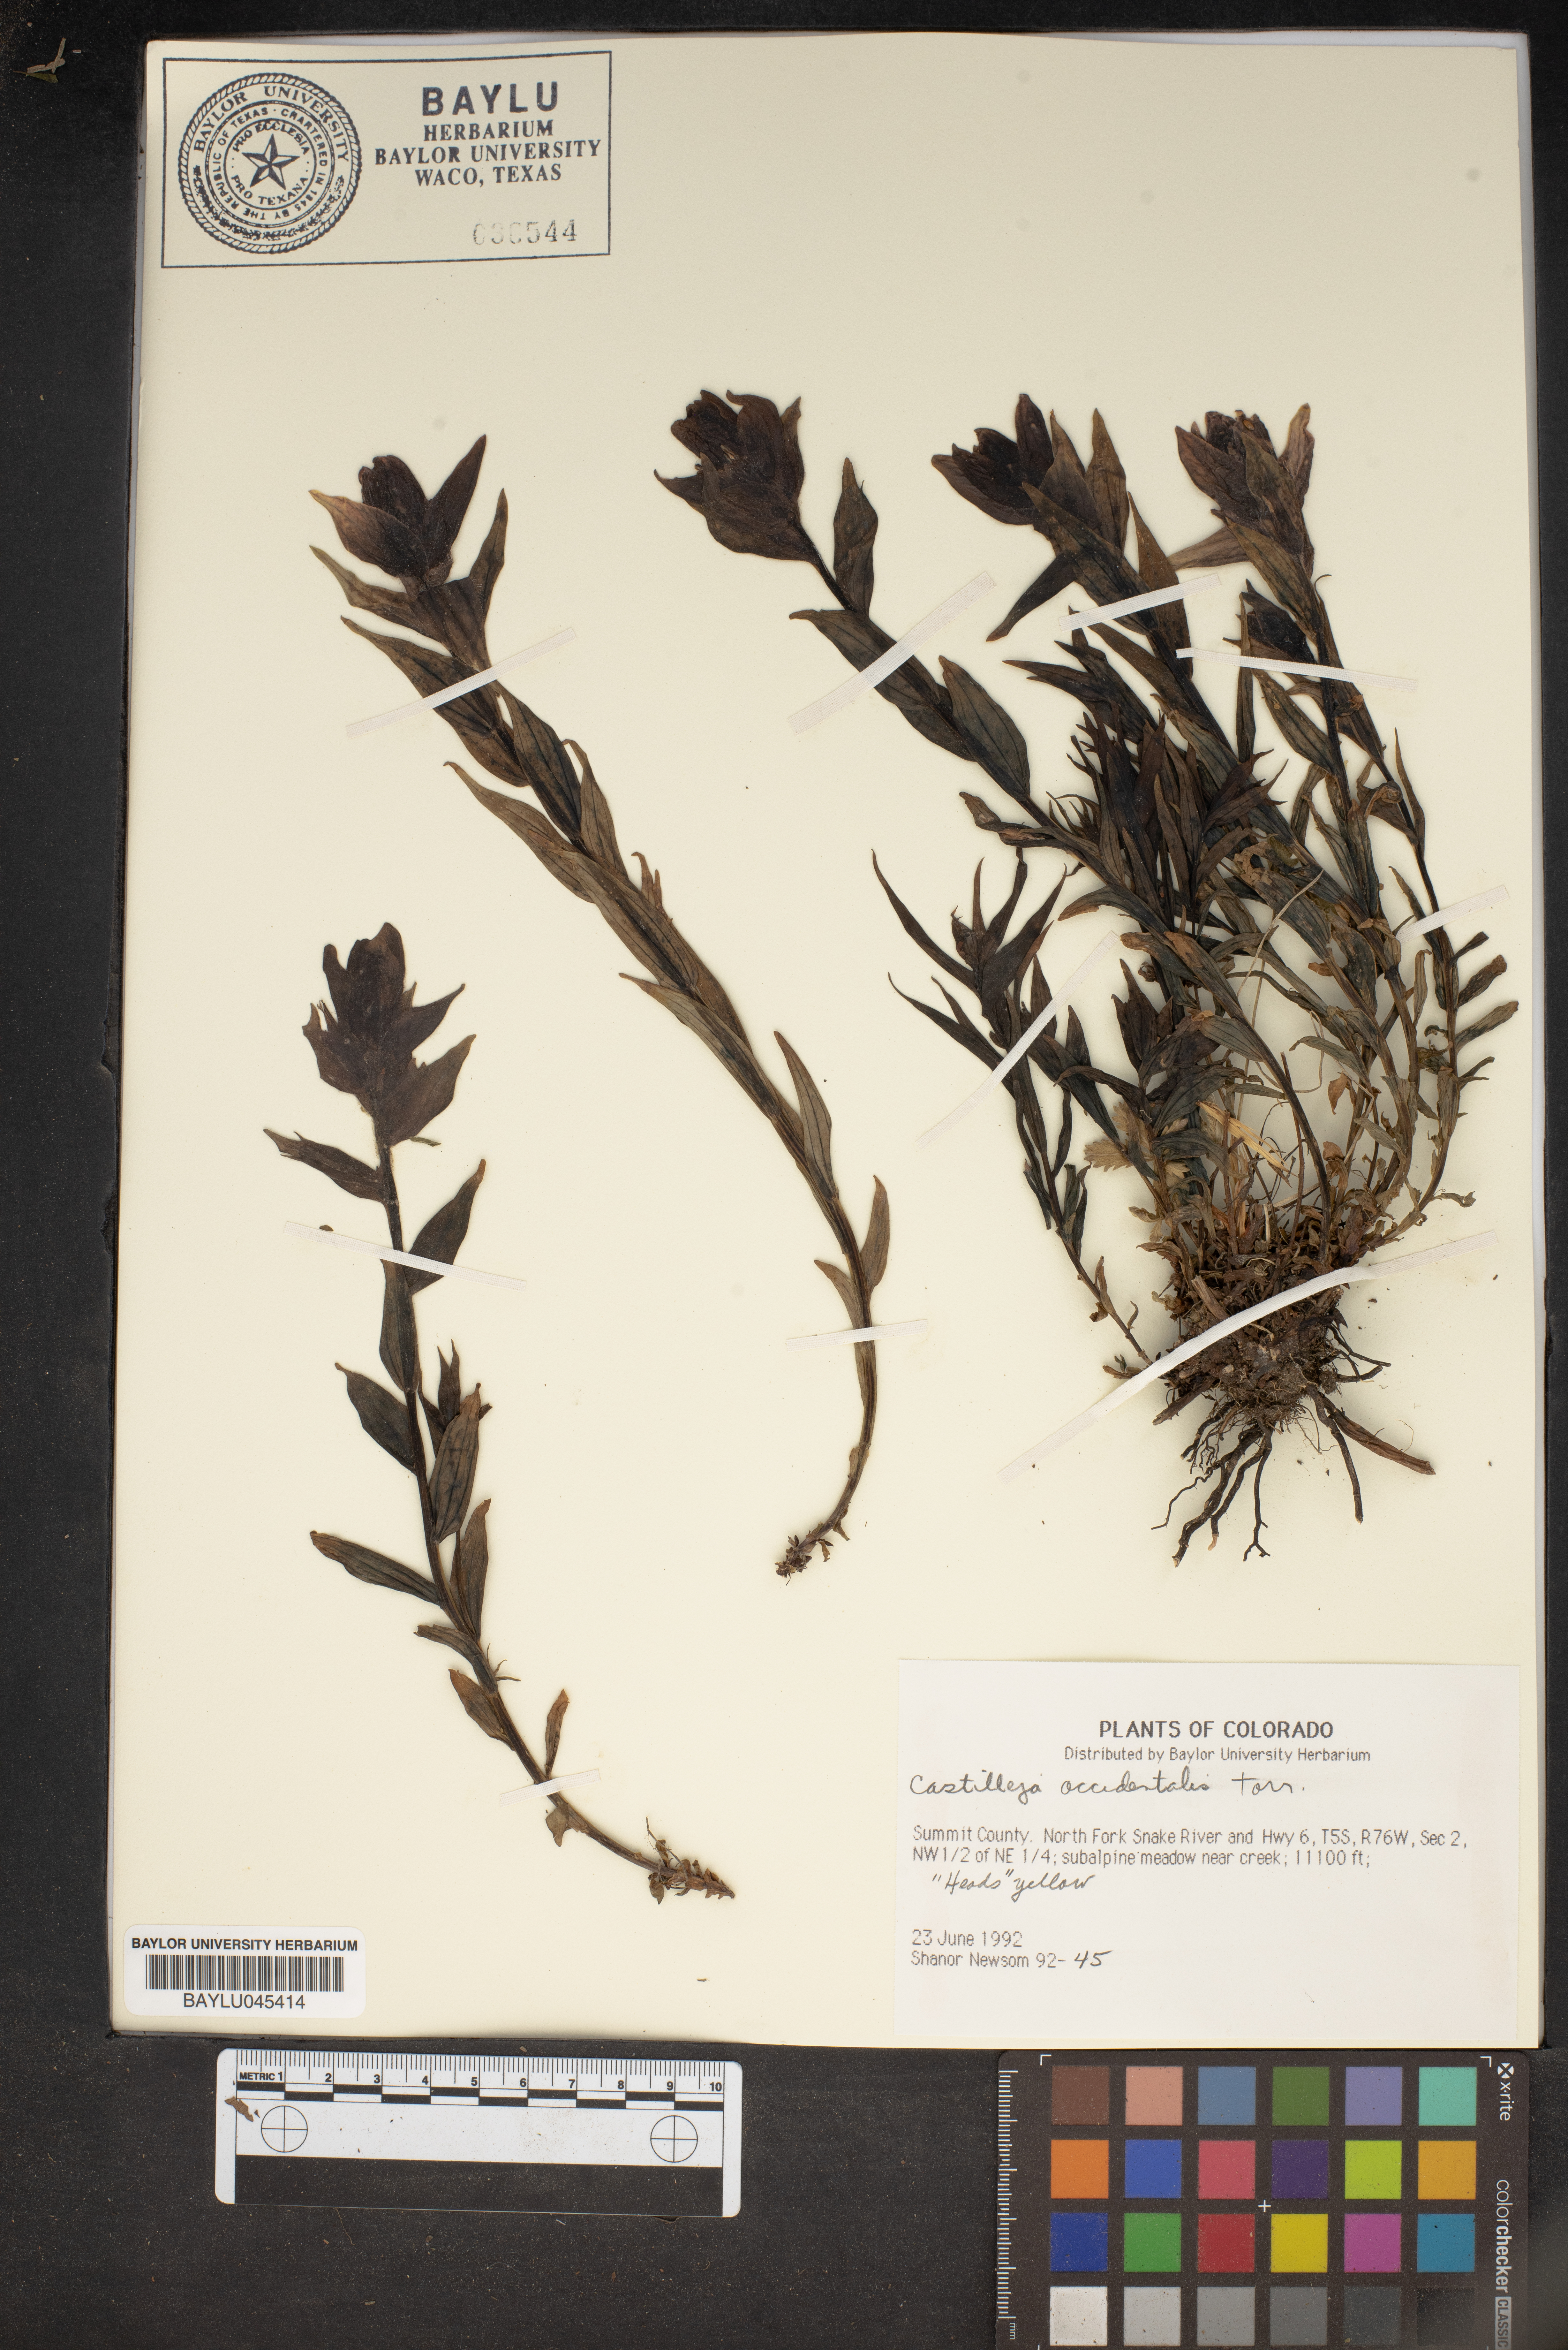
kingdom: Plantae
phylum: Tracheophyta
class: Magnoliopsida
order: Lamiales
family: Orobanchaceae
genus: Castilleja
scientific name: Castilleja occidentalis
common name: Western paintbrush
